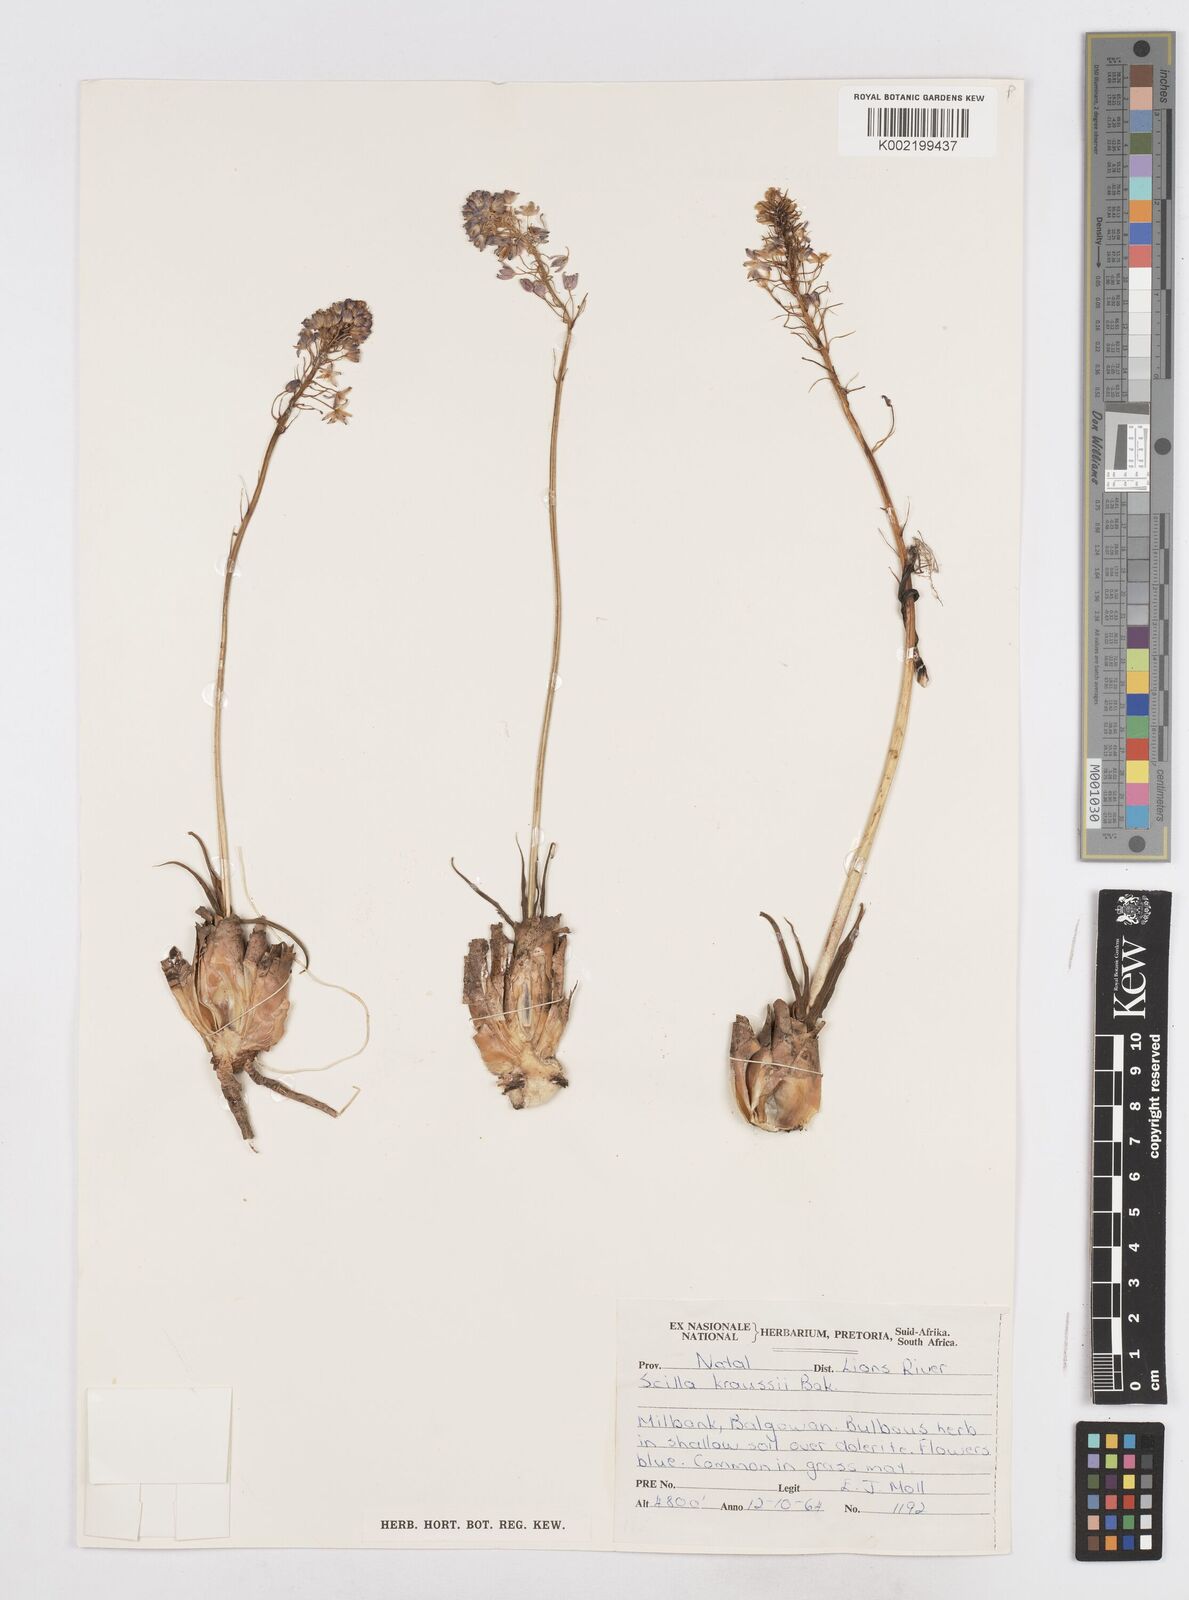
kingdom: Plantae
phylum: Tracheophyta
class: Liliopsida
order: Asparagales
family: Asparagaceae
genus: Schizocarphus
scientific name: Schizocarphus nervosus
